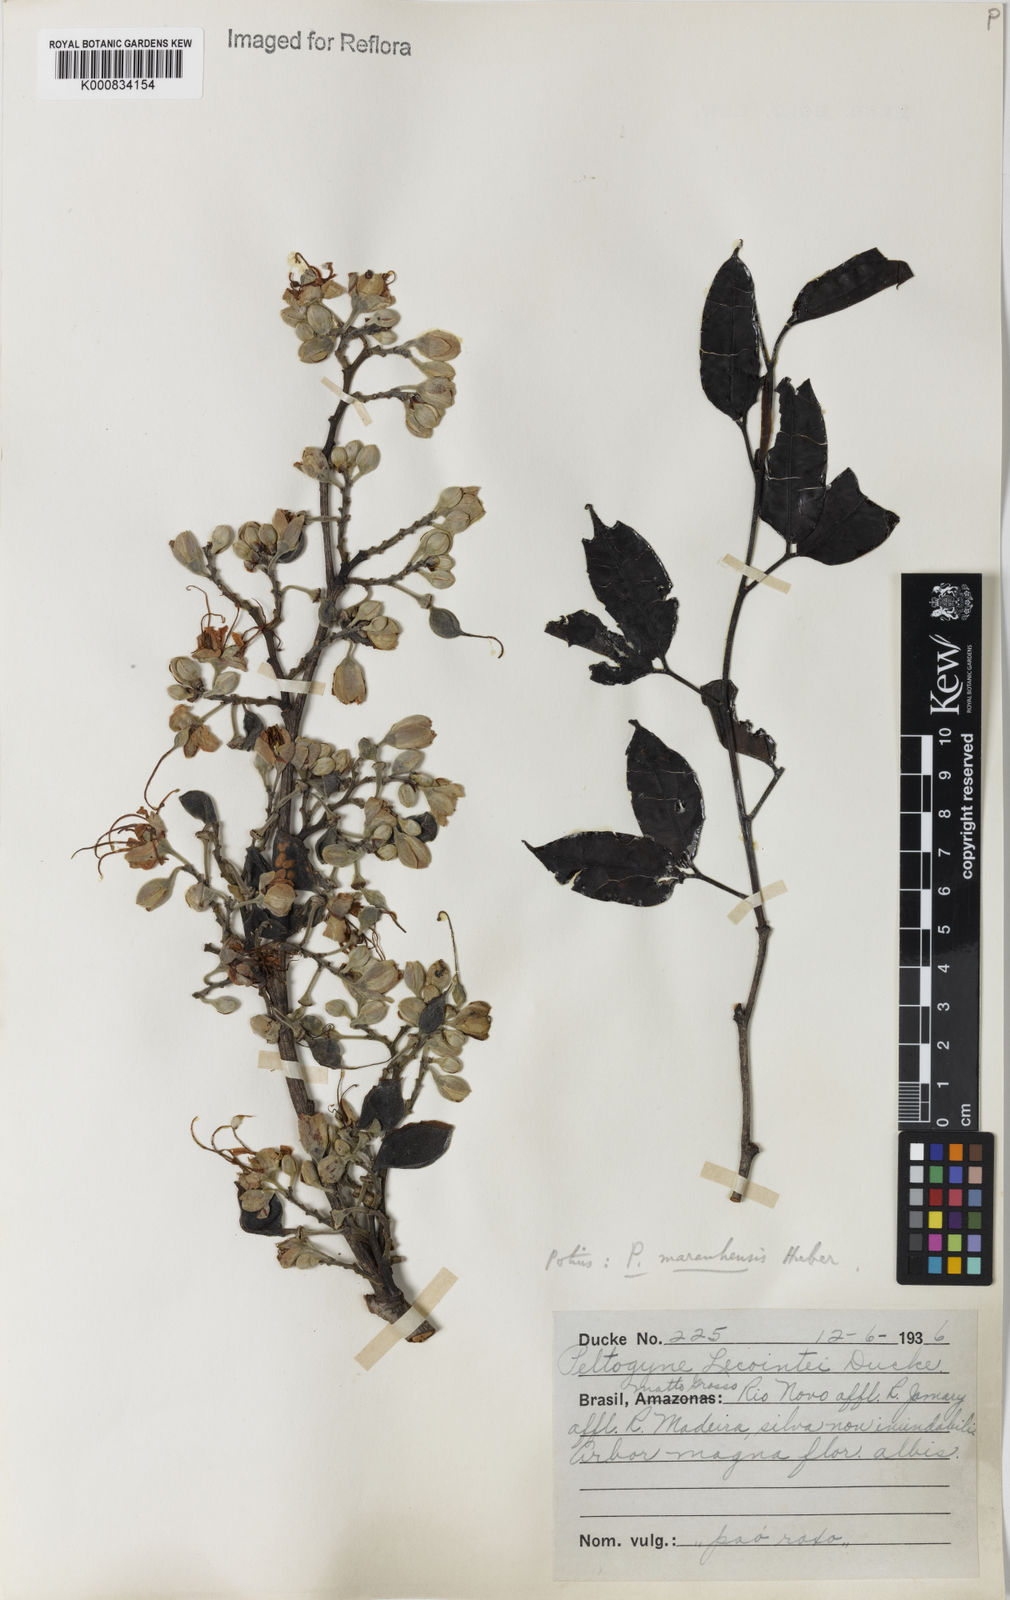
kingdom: Plantae
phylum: Tracheophyta
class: Magnoliopsida
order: Fabales
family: Fabaceae
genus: Peltogyne
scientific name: Peltogyne maranhensis
